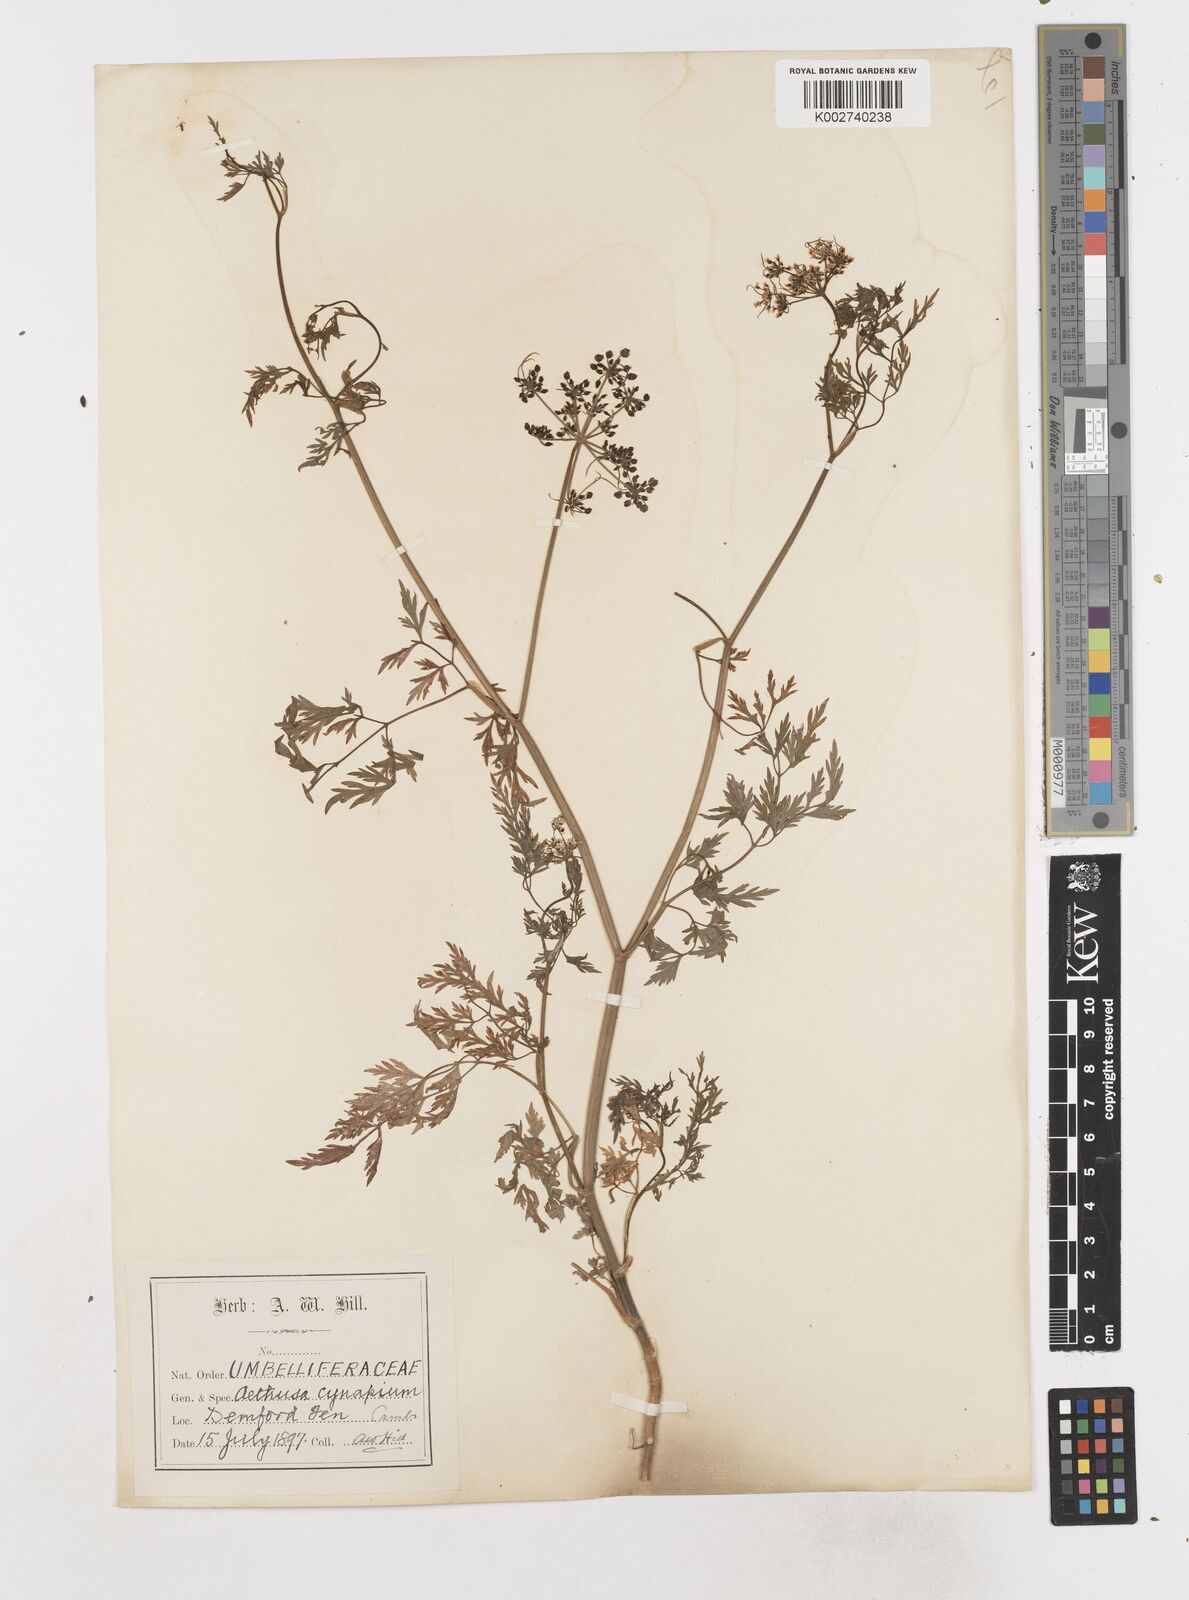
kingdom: Plantae
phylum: Tracheophyta
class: Magnoliopsida
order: Apiales
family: Apiaceae
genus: Aethusa
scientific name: Aethusa cynapium
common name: Fool's parsley
